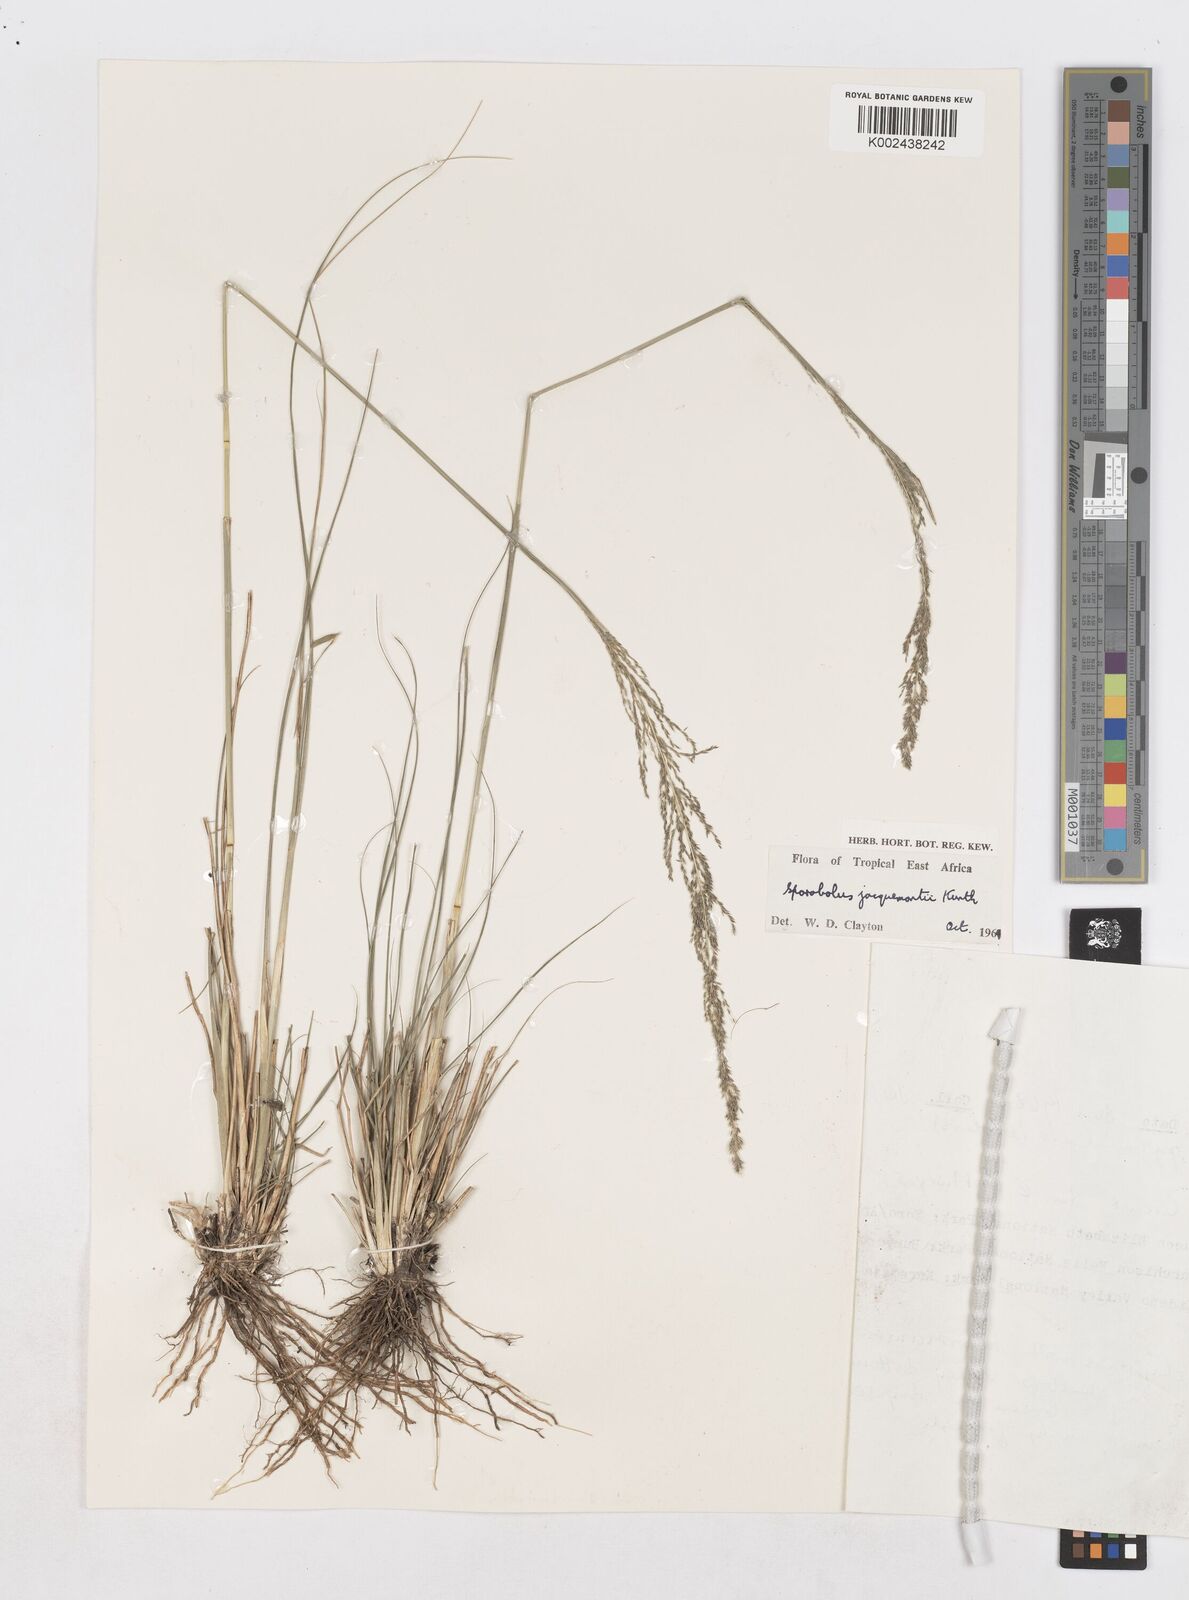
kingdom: Plantae
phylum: Tracheophyta
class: Liliopsida
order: Poales
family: Poaceae
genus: Sporobolus
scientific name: Sporobolus pyramidalis
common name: West indian dropseed
